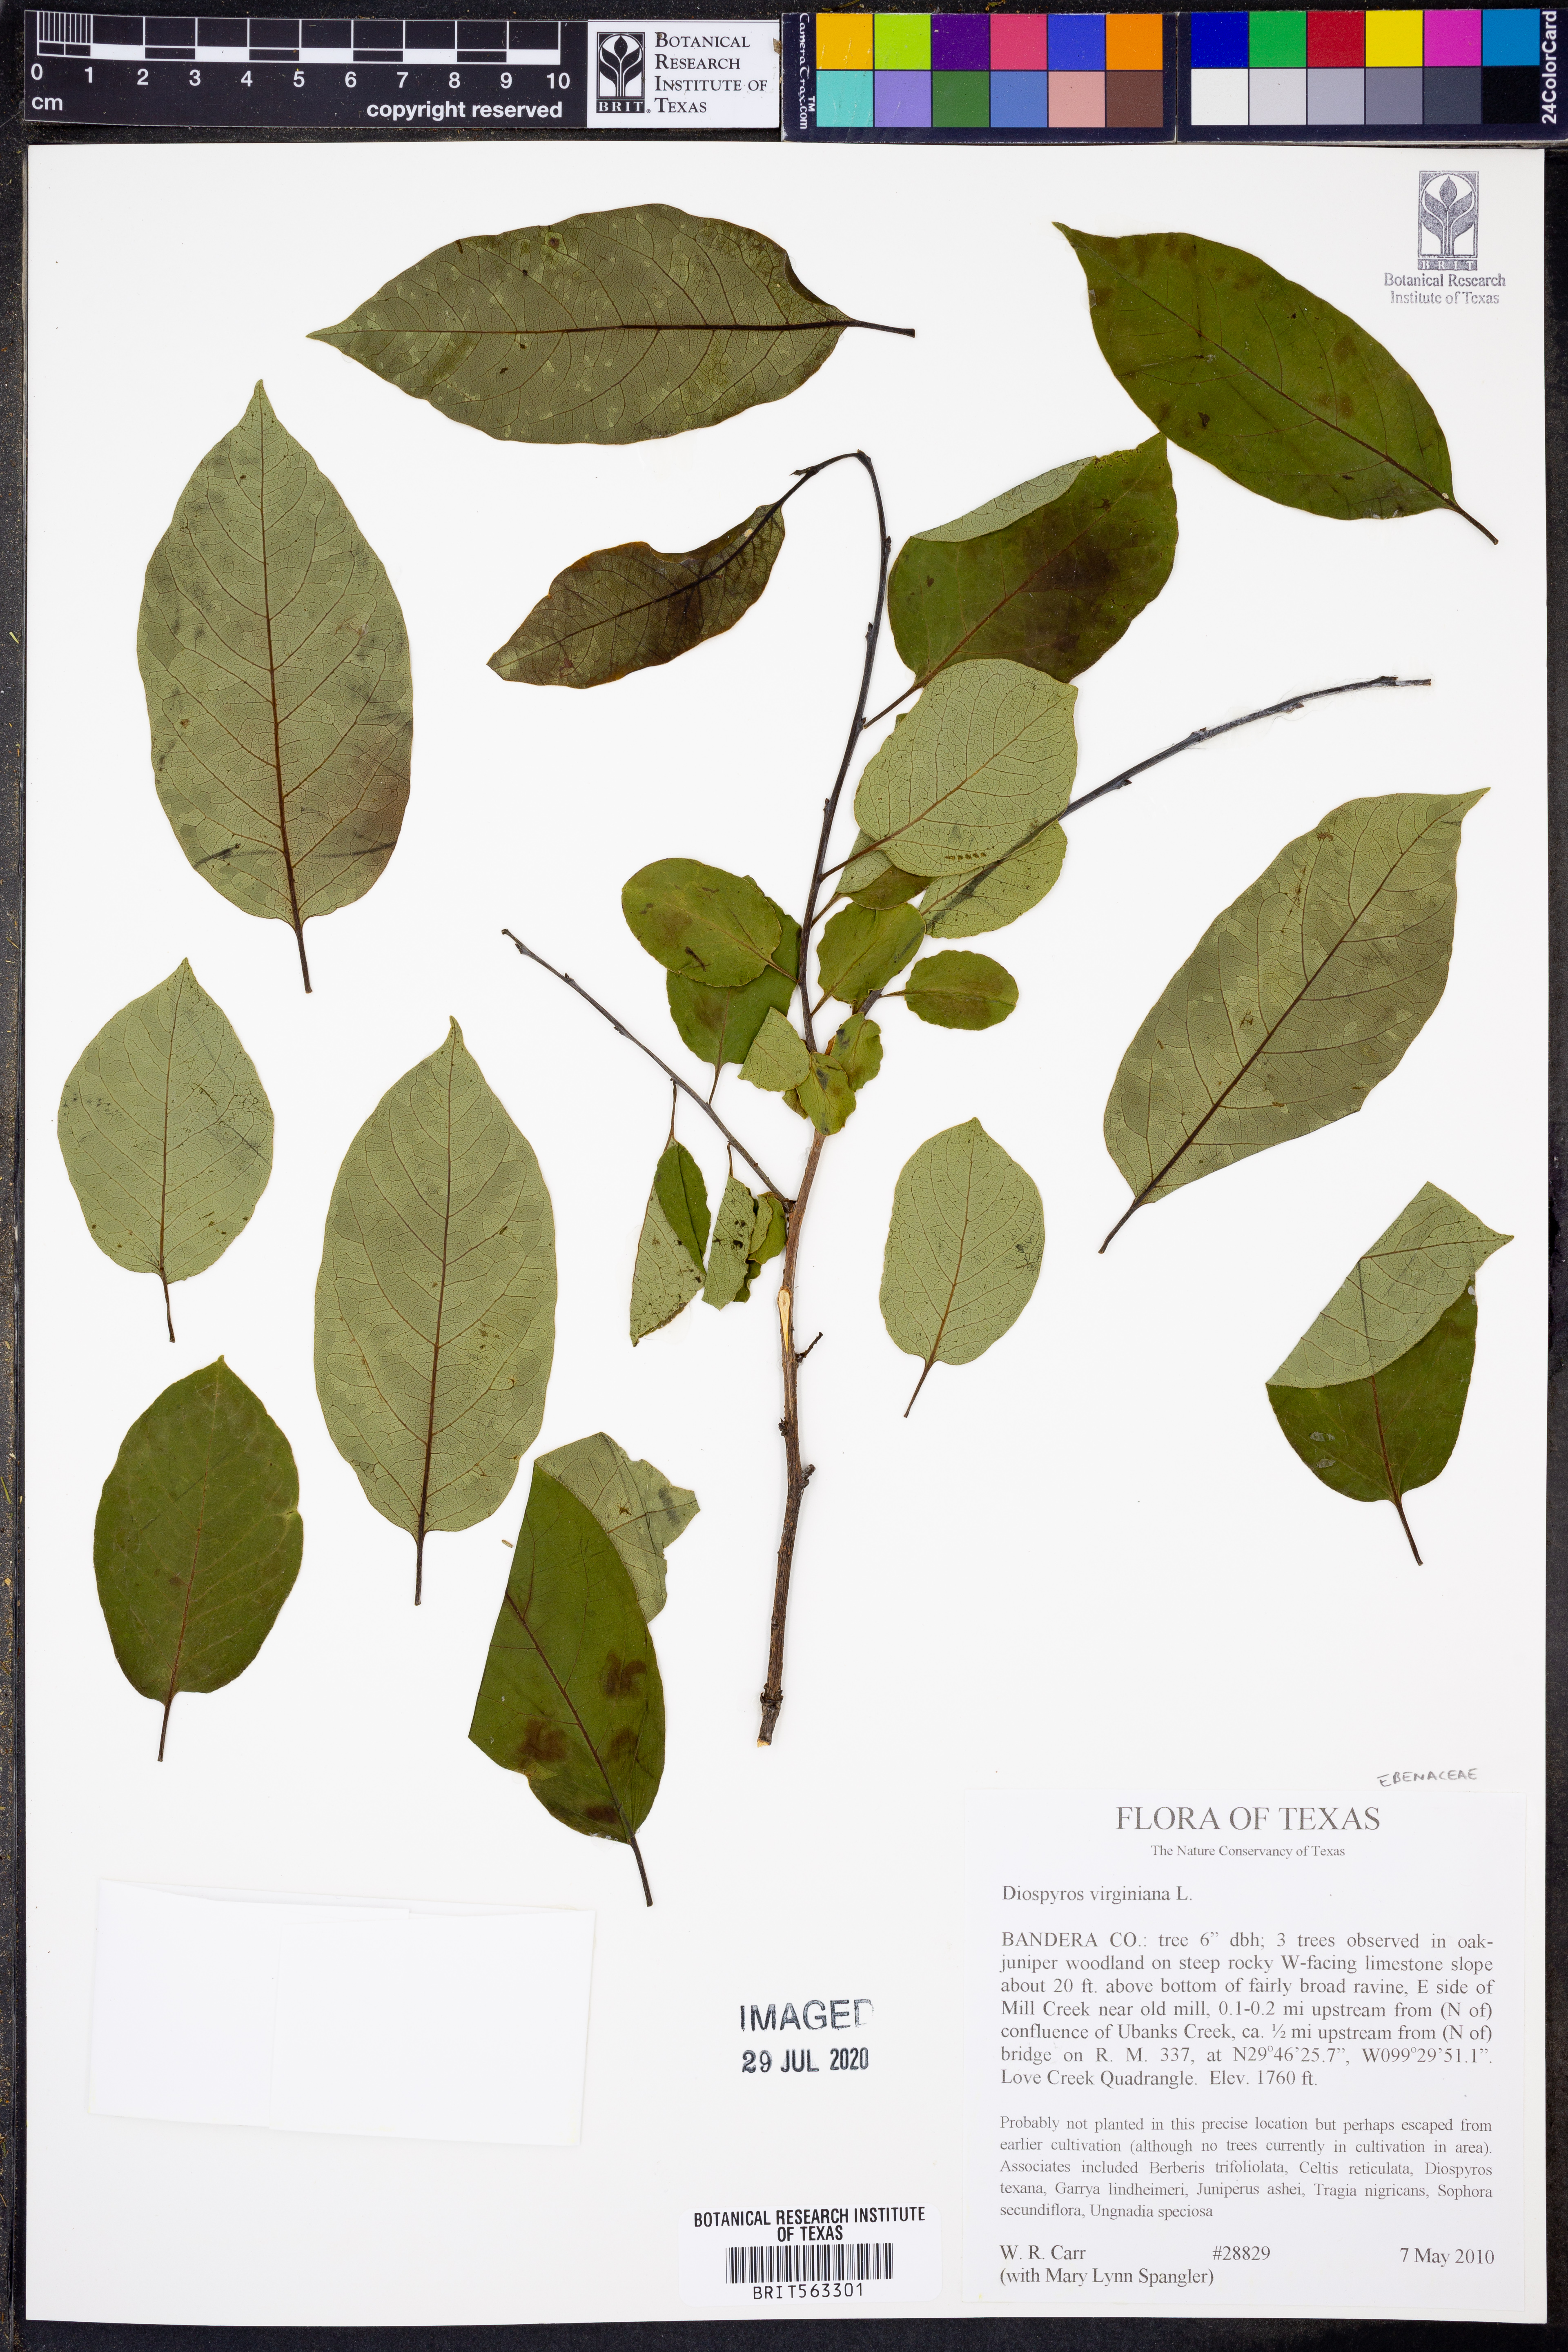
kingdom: Plantae
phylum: Tracheophyta
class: Magnoliopsida
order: Ericales
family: Ebenaceae
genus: Diospyros
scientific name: Diospyros virginiana
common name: Persimmon
